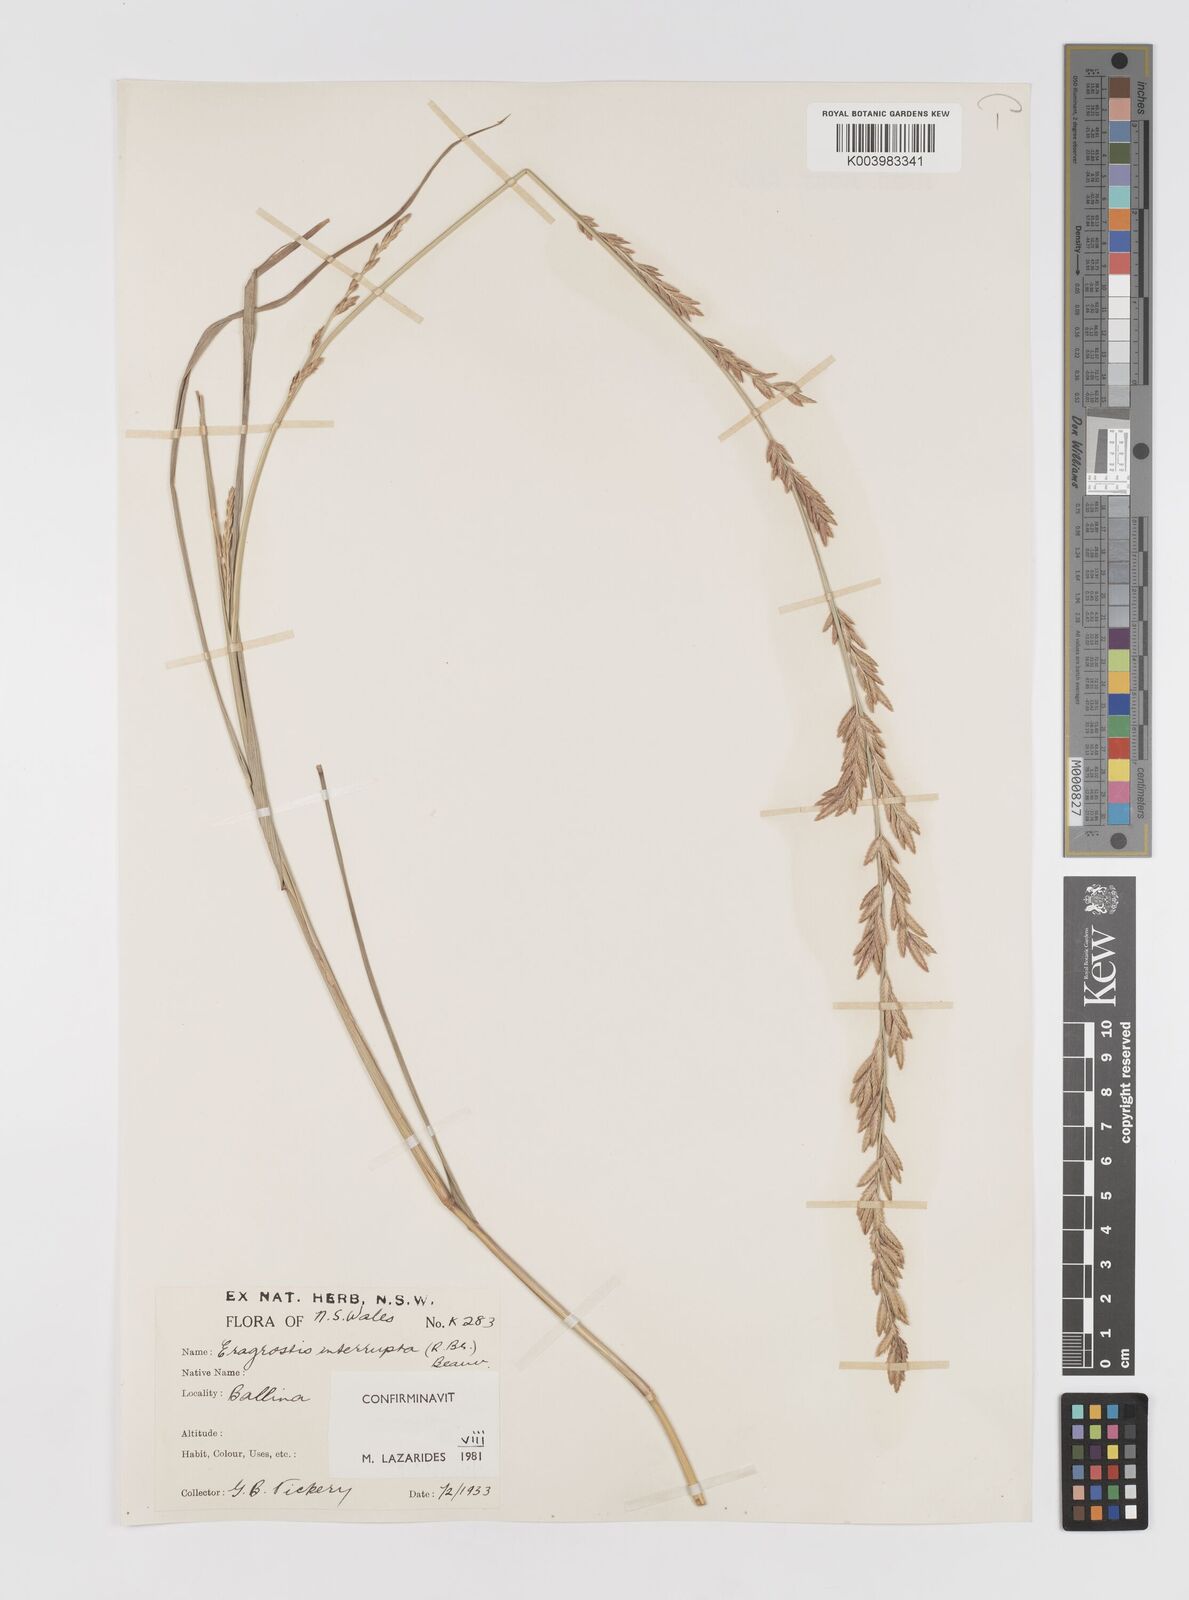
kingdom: Plantae
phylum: Tracheophyta
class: Liliopsida
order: Poales
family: Poaceae
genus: Eragrostis
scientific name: Eragrostis interrupta
